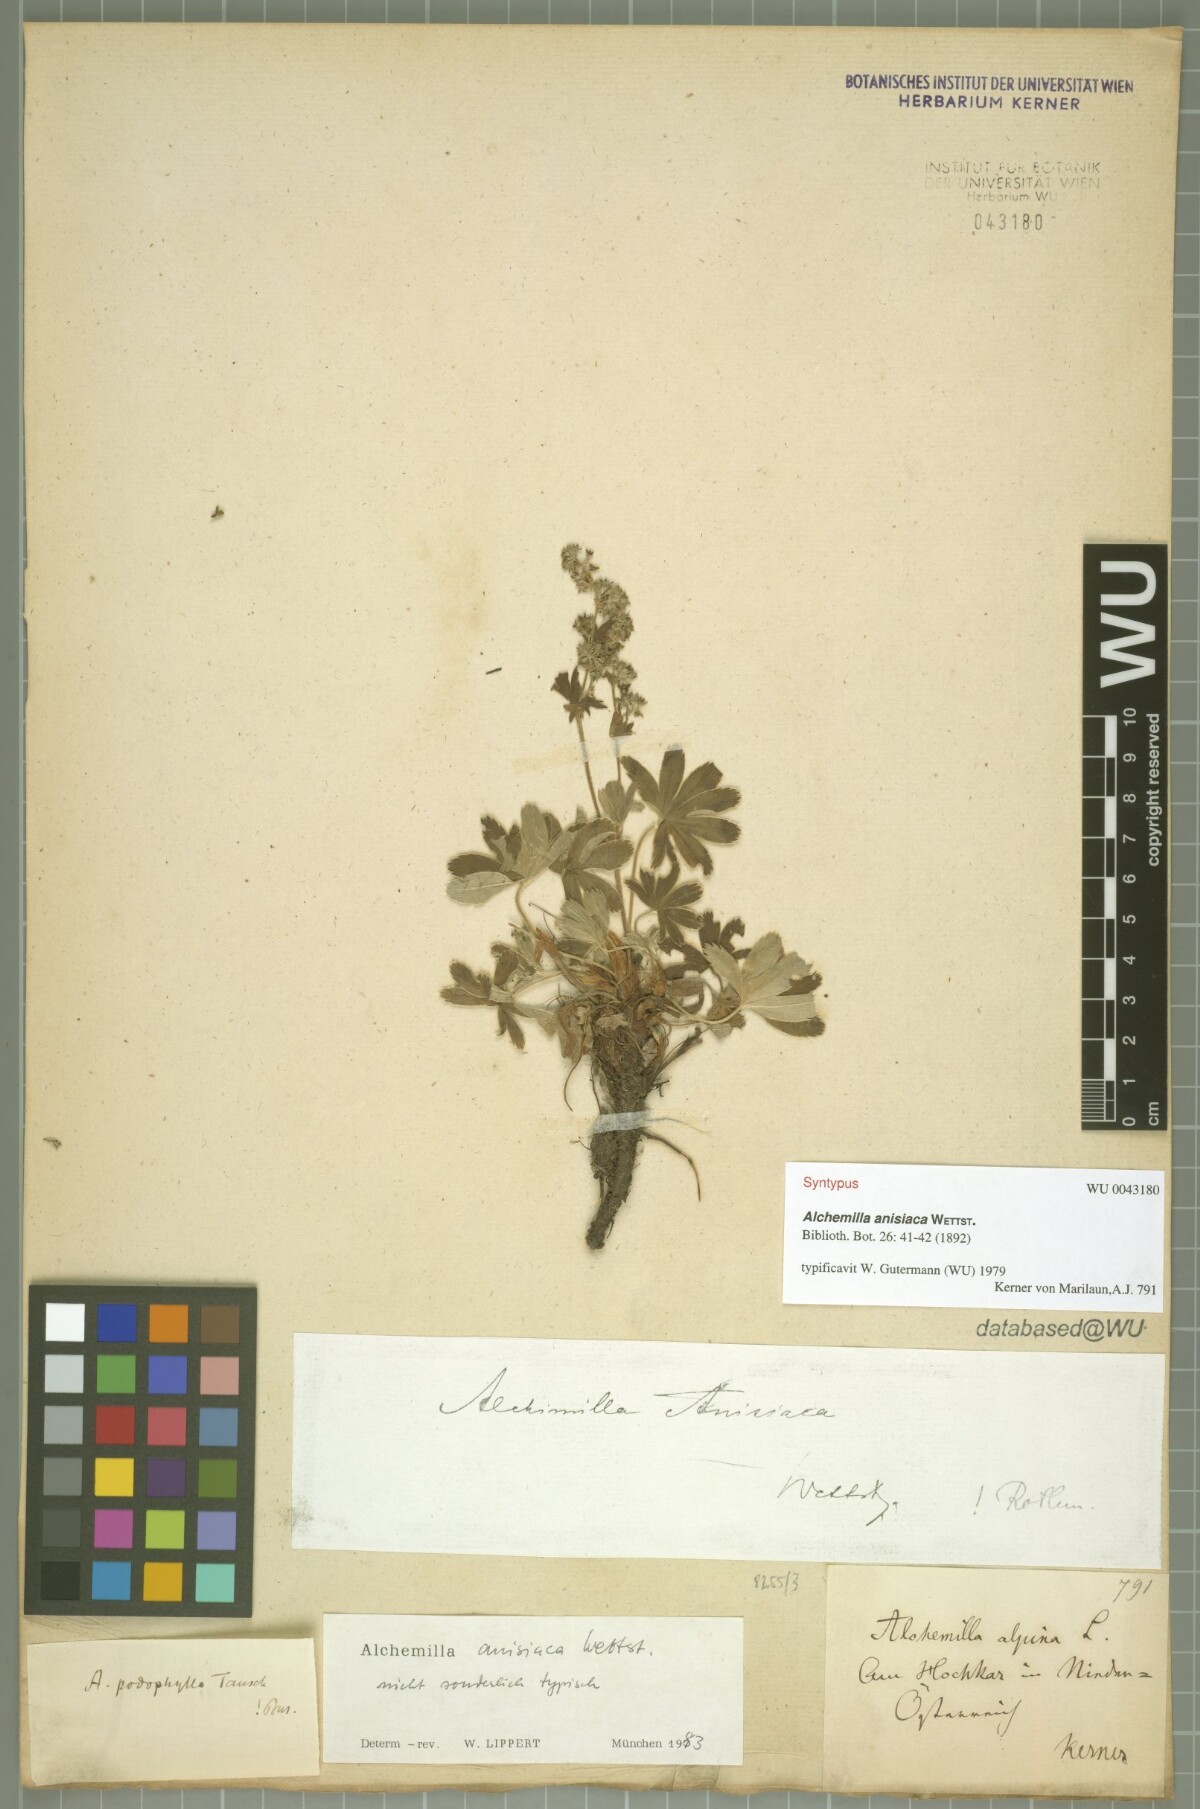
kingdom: Plantae
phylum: Tracheophyta
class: Magnoliopsida
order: Rosales
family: Rosaceae
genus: Alchemilla
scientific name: Alchemilla anisiaca
